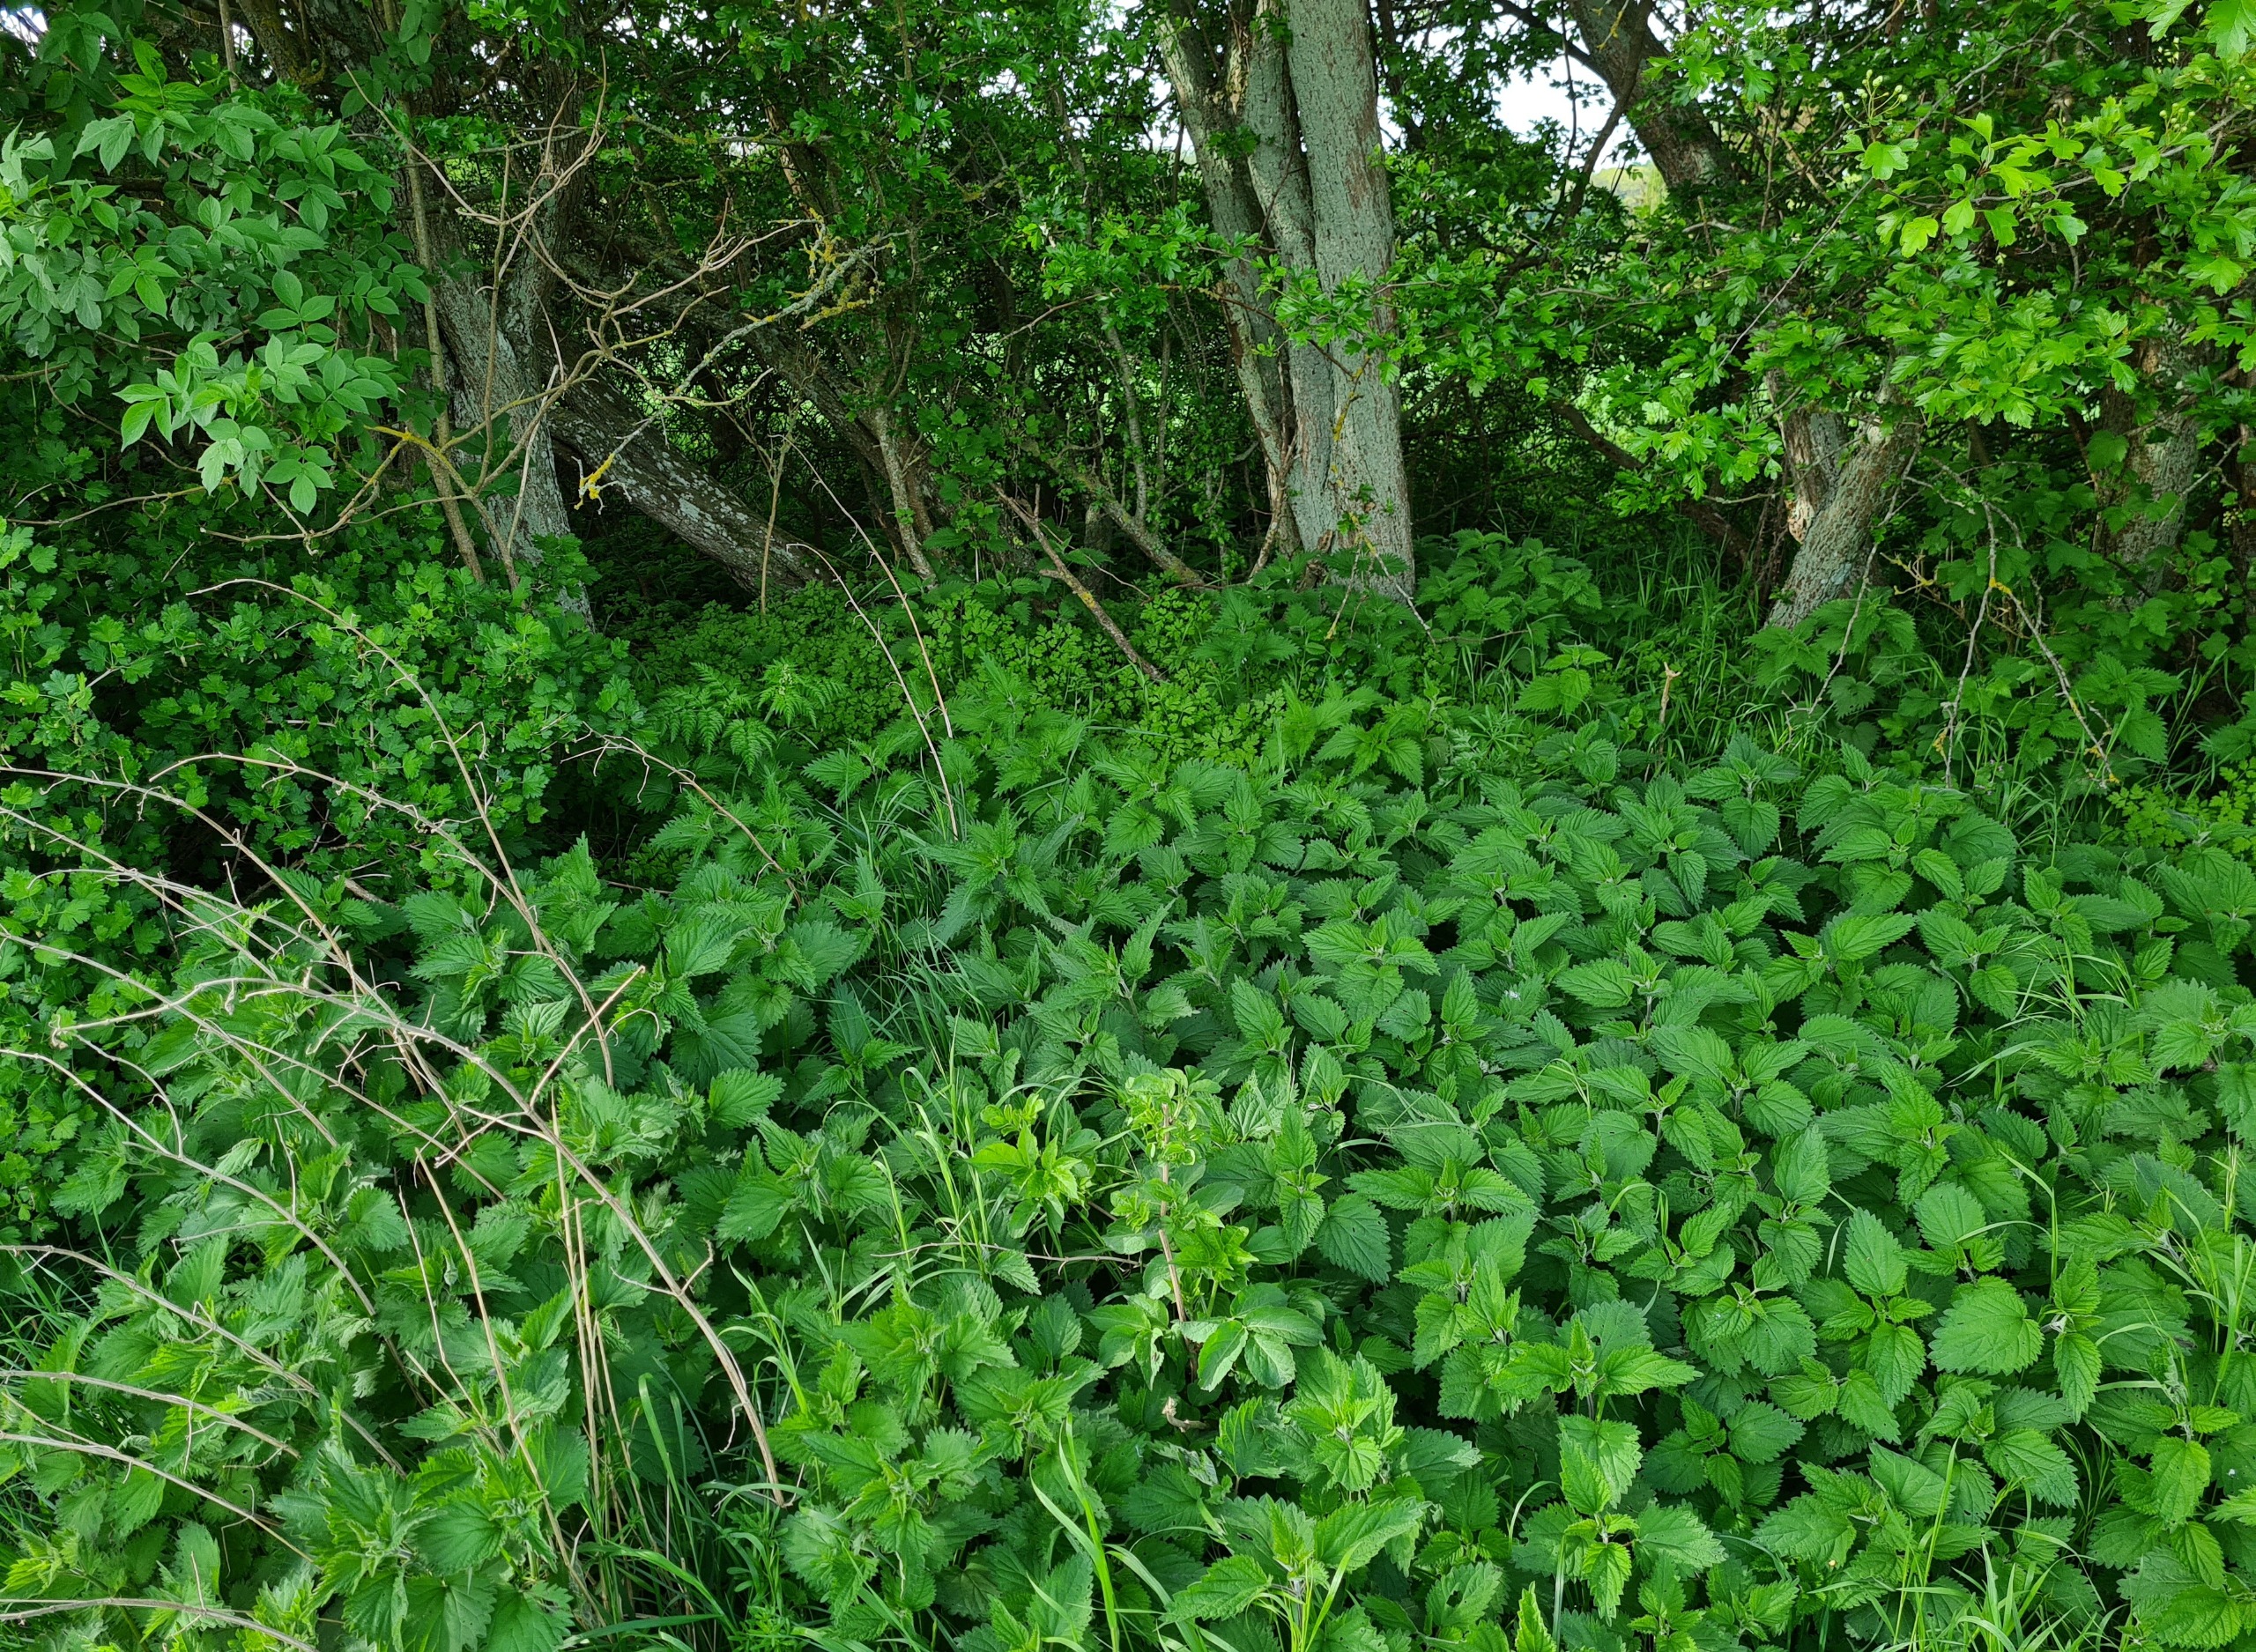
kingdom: Plantae
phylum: Tracheophyta
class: Magnoliopsida
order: Rosales
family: Urticaceae
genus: Urtica
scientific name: Urtica dioica
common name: Stor nælde
